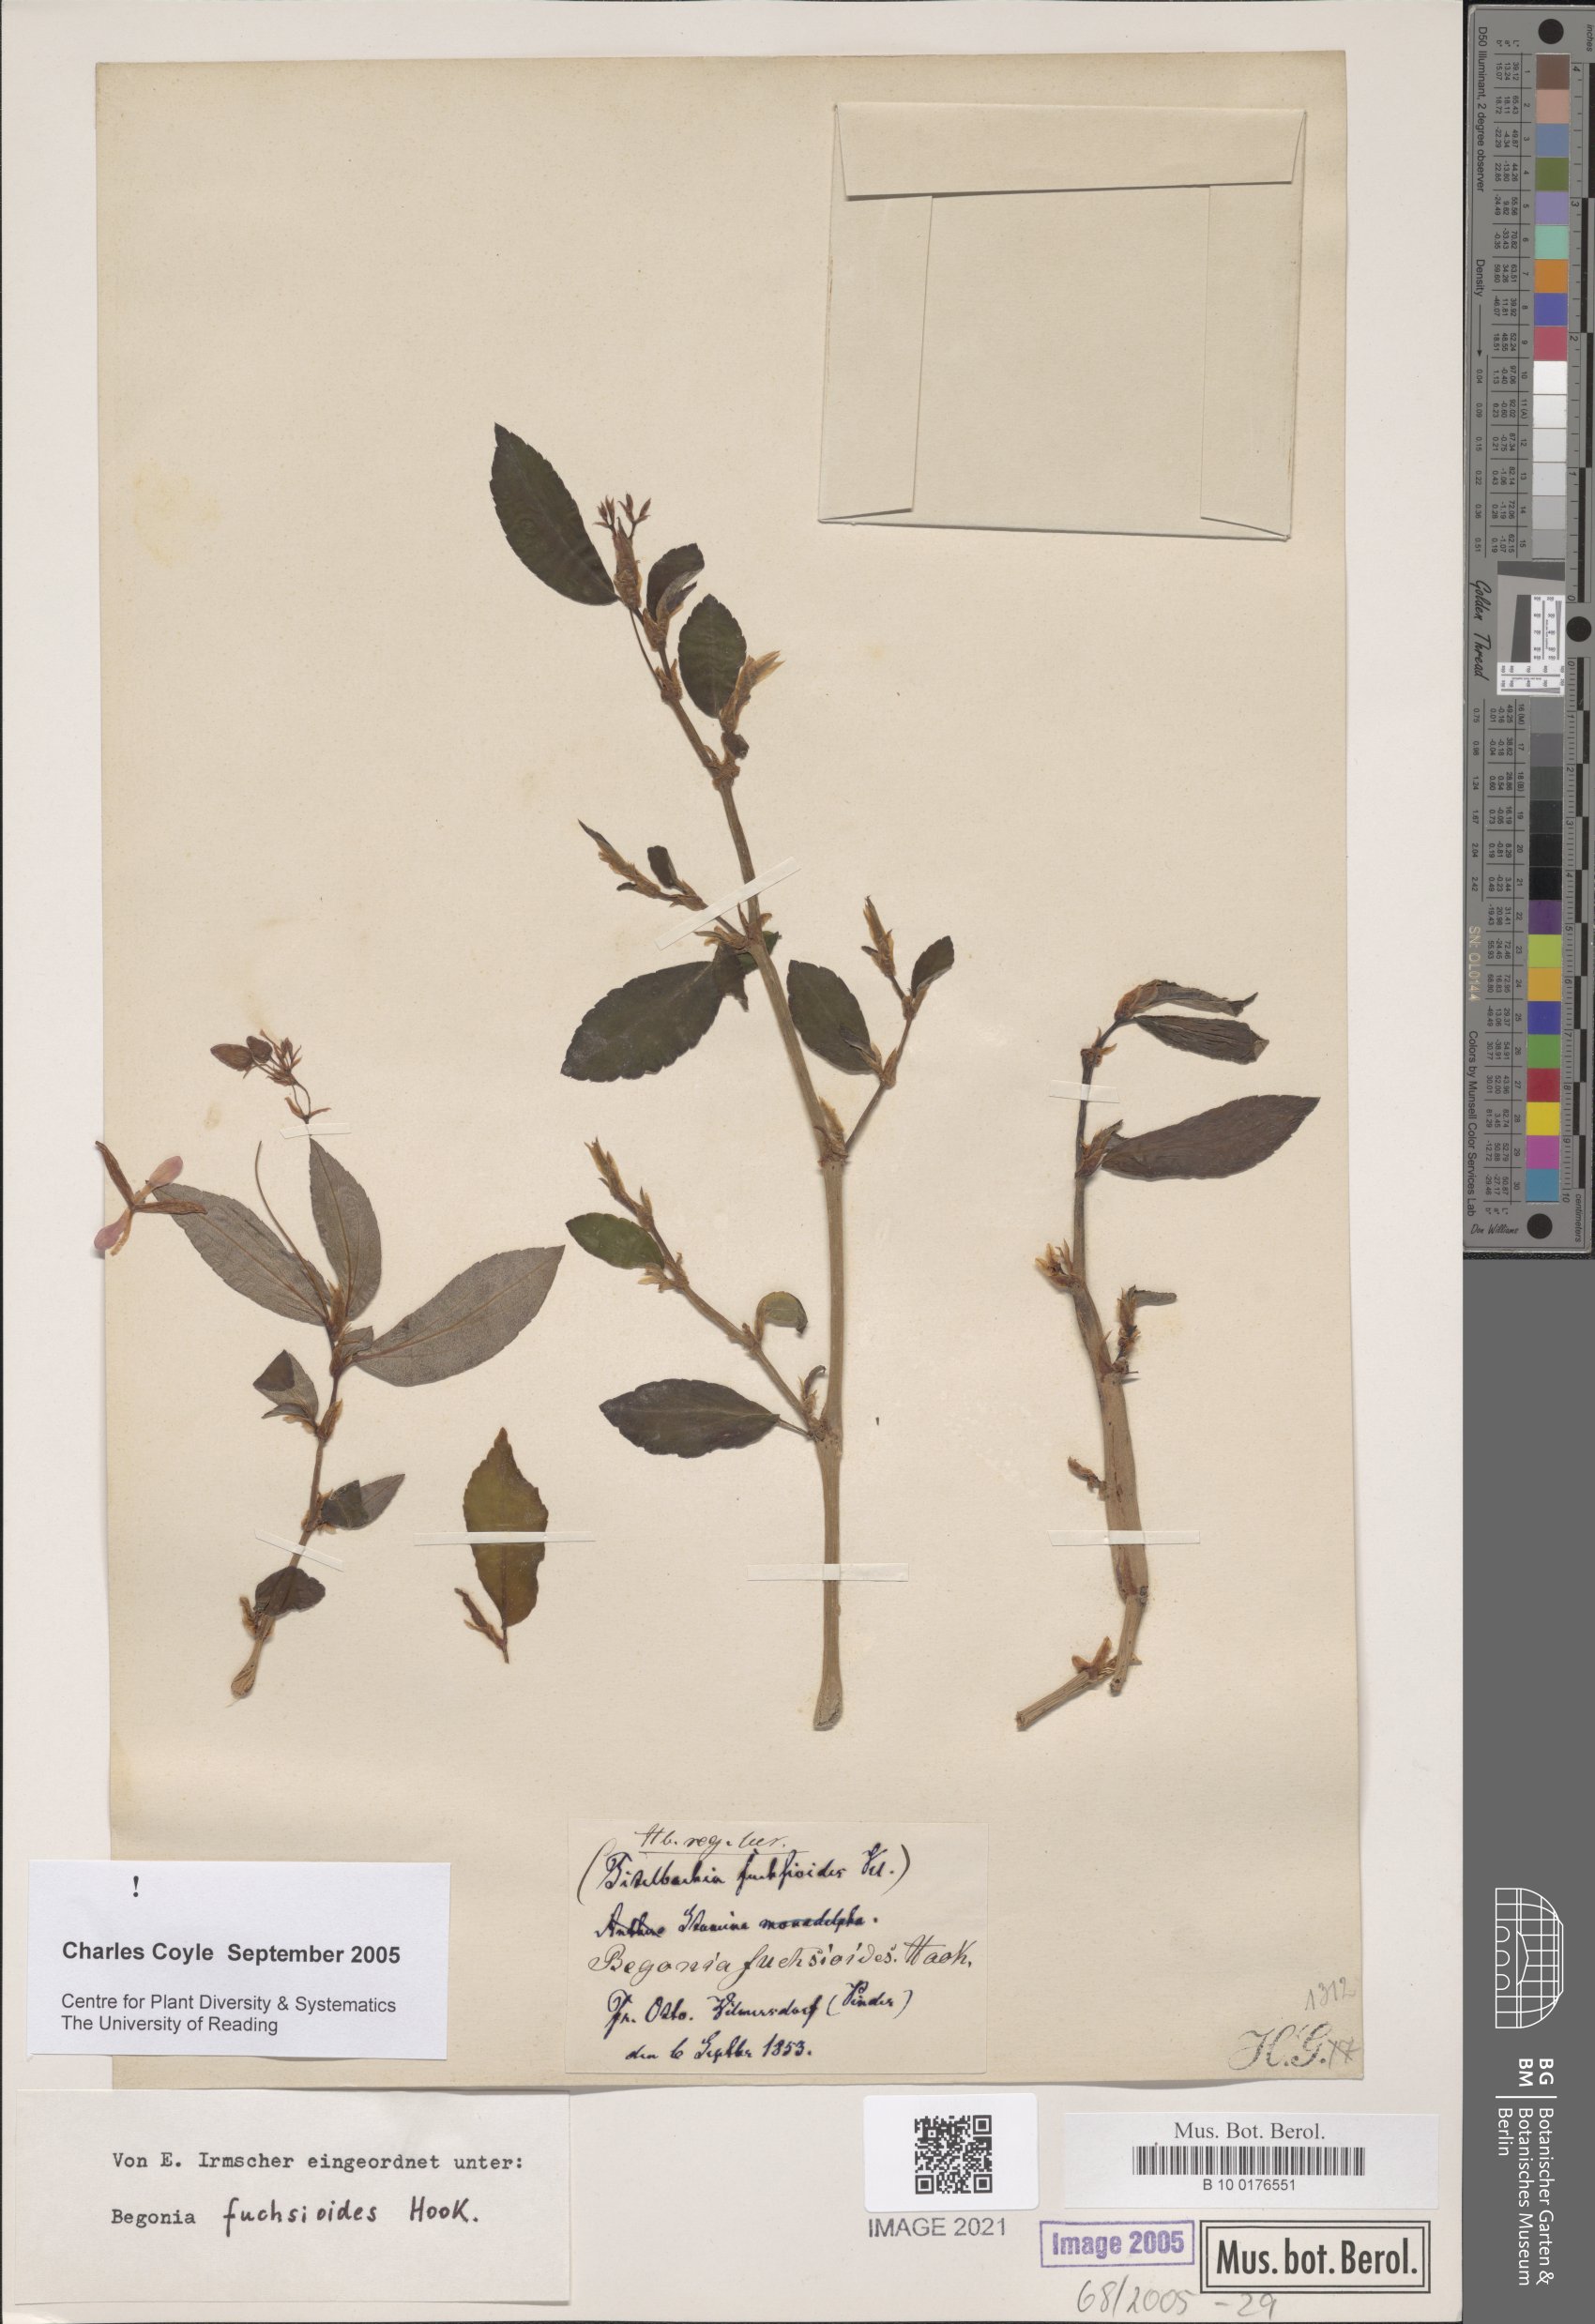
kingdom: Plantae
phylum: Tracheophyta
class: Magnoliopsida
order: Cucurbitales
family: Begoniaceae
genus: Begonia
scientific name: Begonia fuchsioides
